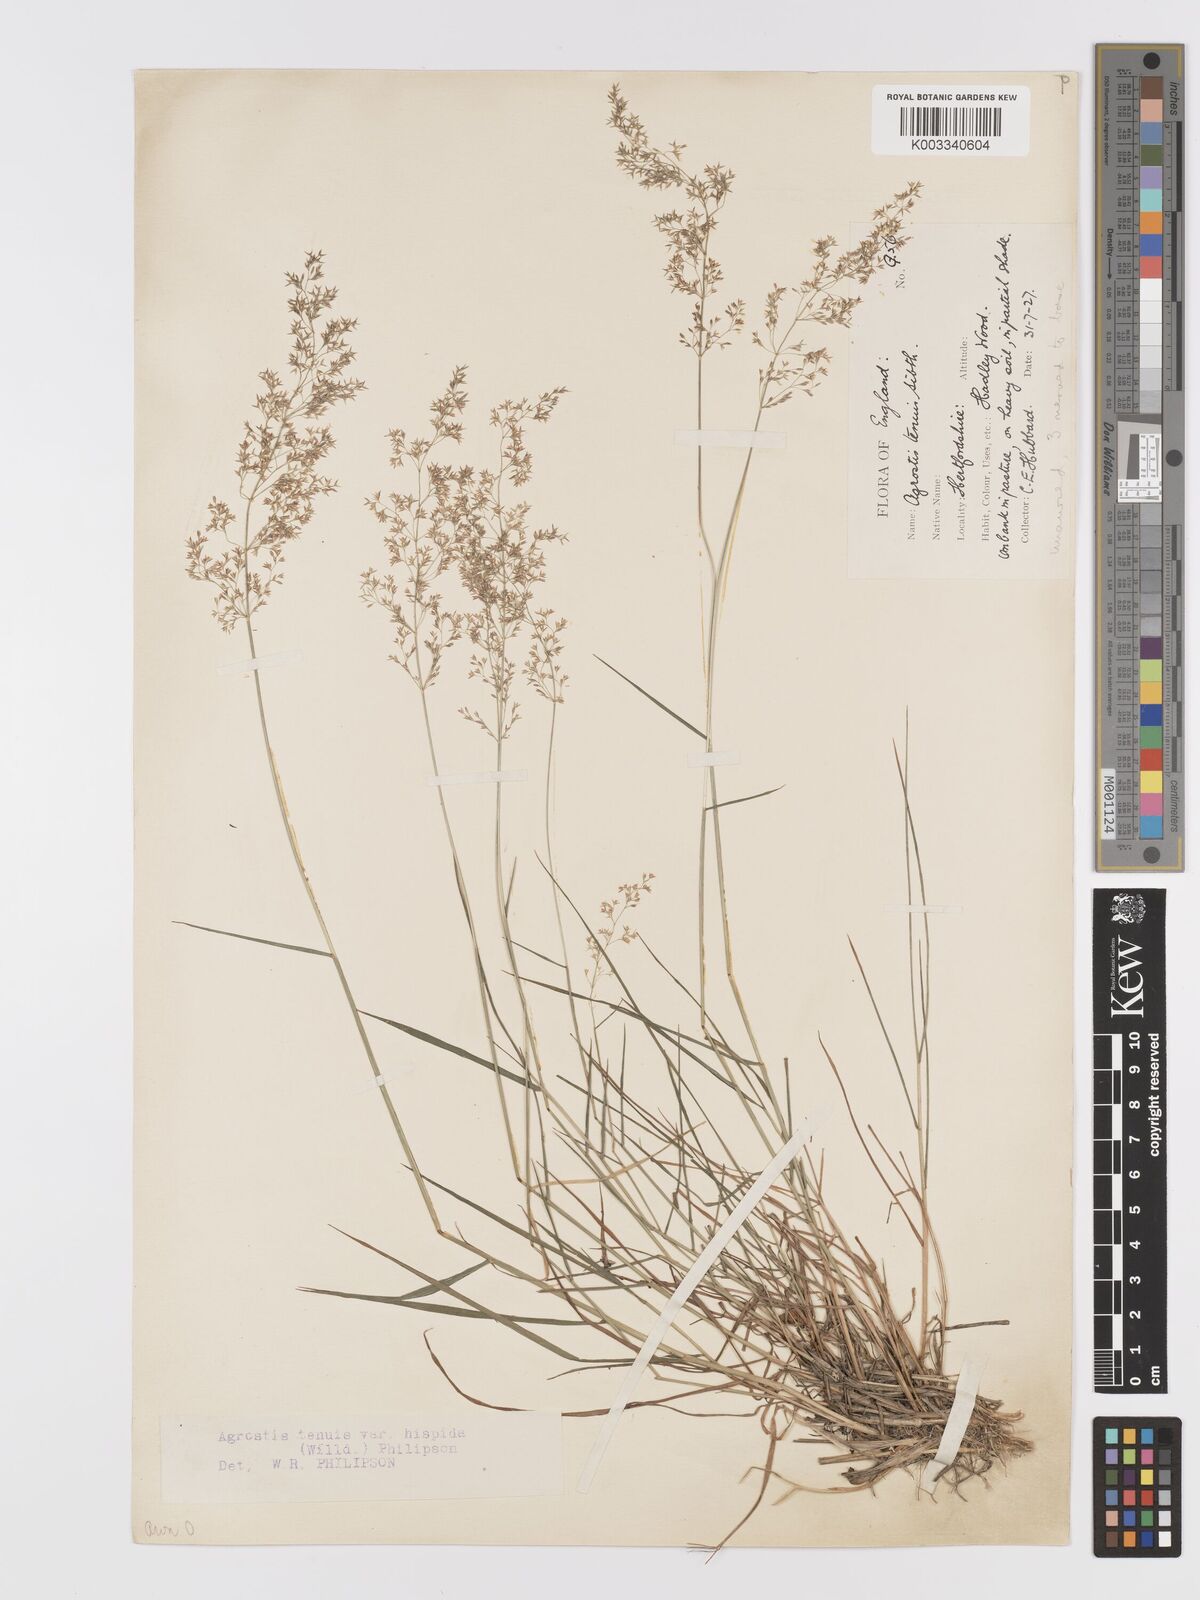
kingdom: Plantae
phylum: Tracheophyta
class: Liliopsida
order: Poales
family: Poaceae
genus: Agrostis
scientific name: Agrostis capillaris
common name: Colonial bentgrass
